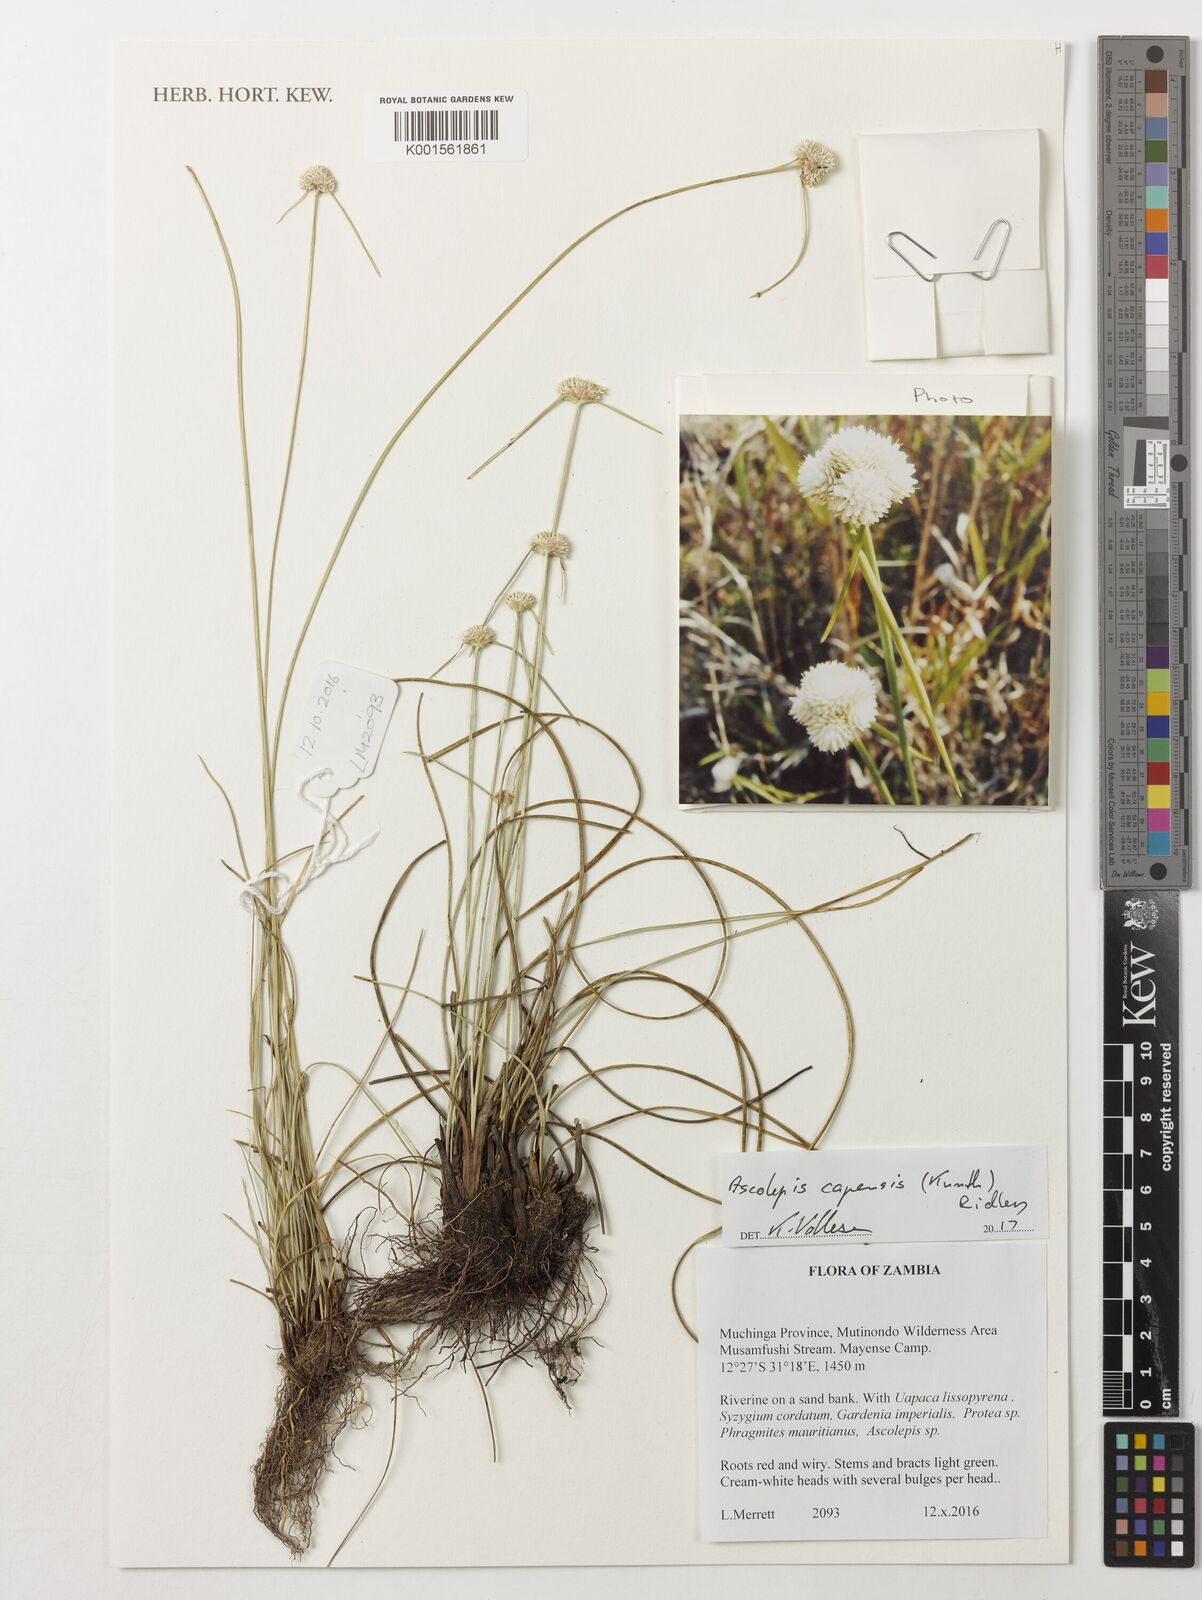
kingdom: Plantae
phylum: Tracheophyta
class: Liliopsida
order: Poales
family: Cyperaceae
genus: Cyperus
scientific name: Cyperus ascocapensis
